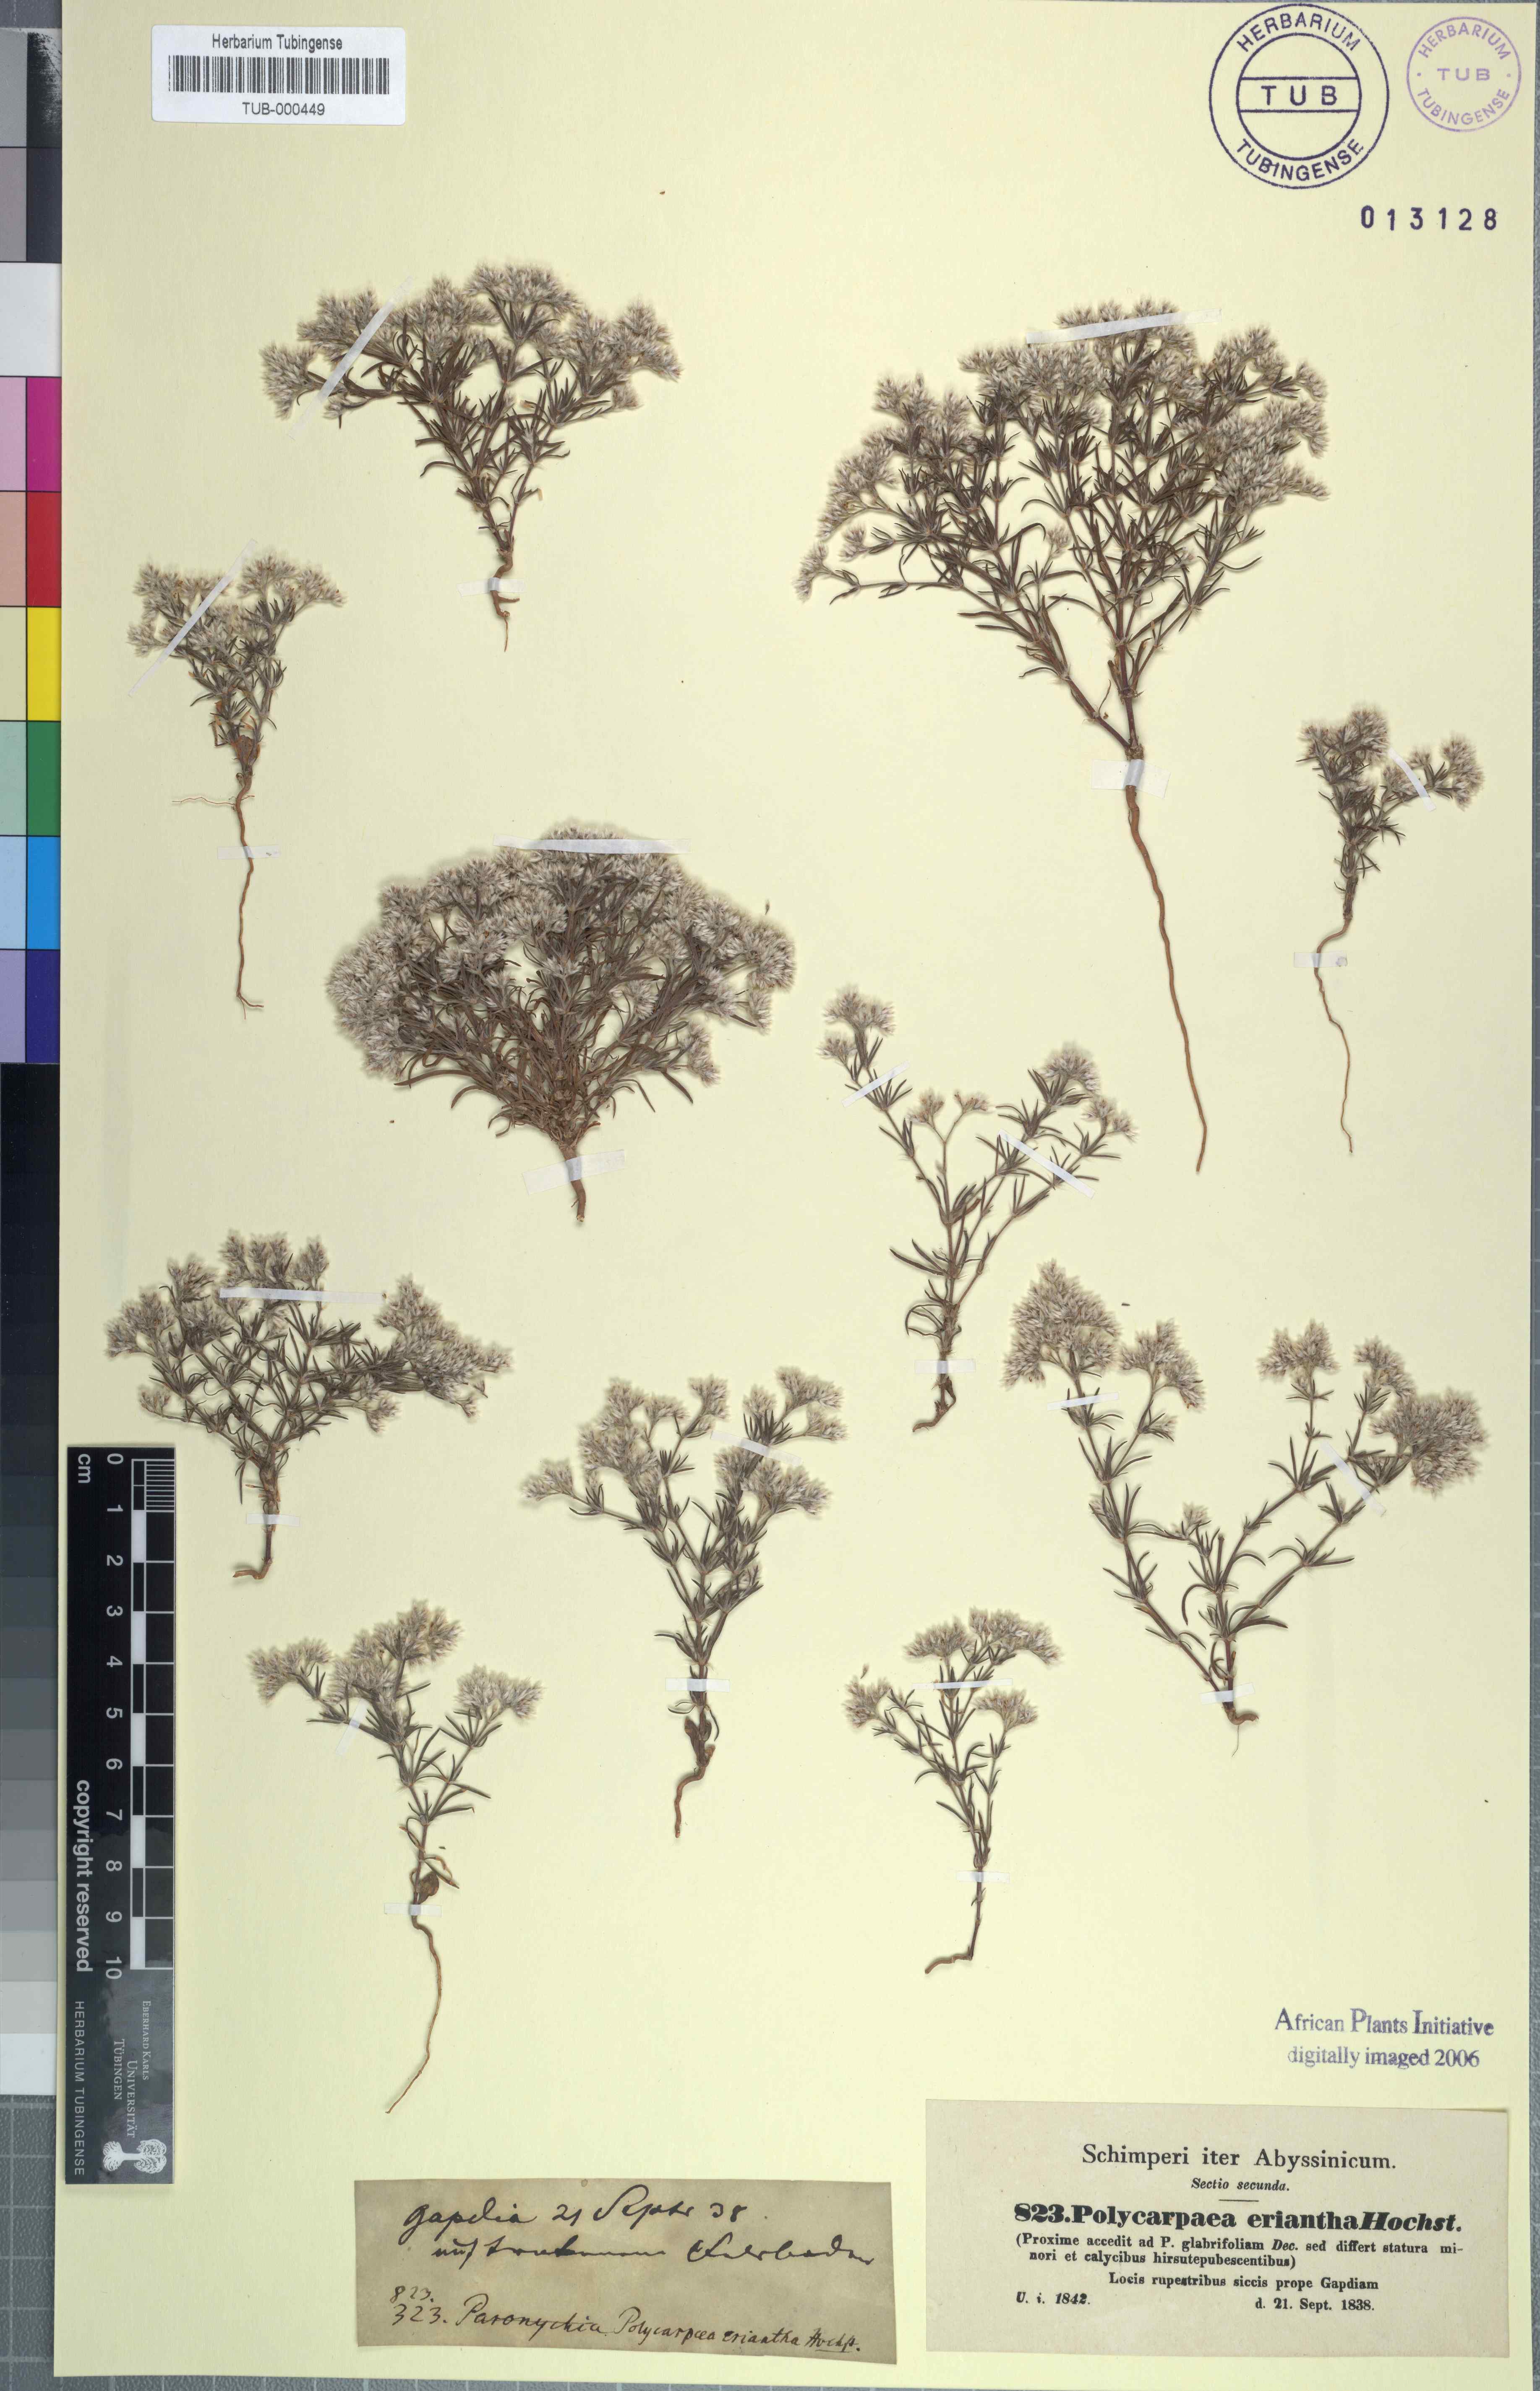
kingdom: Plantae
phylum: Tracheophyta
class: Magnoliopsida
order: Caryophyllales
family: Caryophyllaceae
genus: Polycarpaea
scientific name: Polycarpaea corymbosa
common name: Oldman's cap
